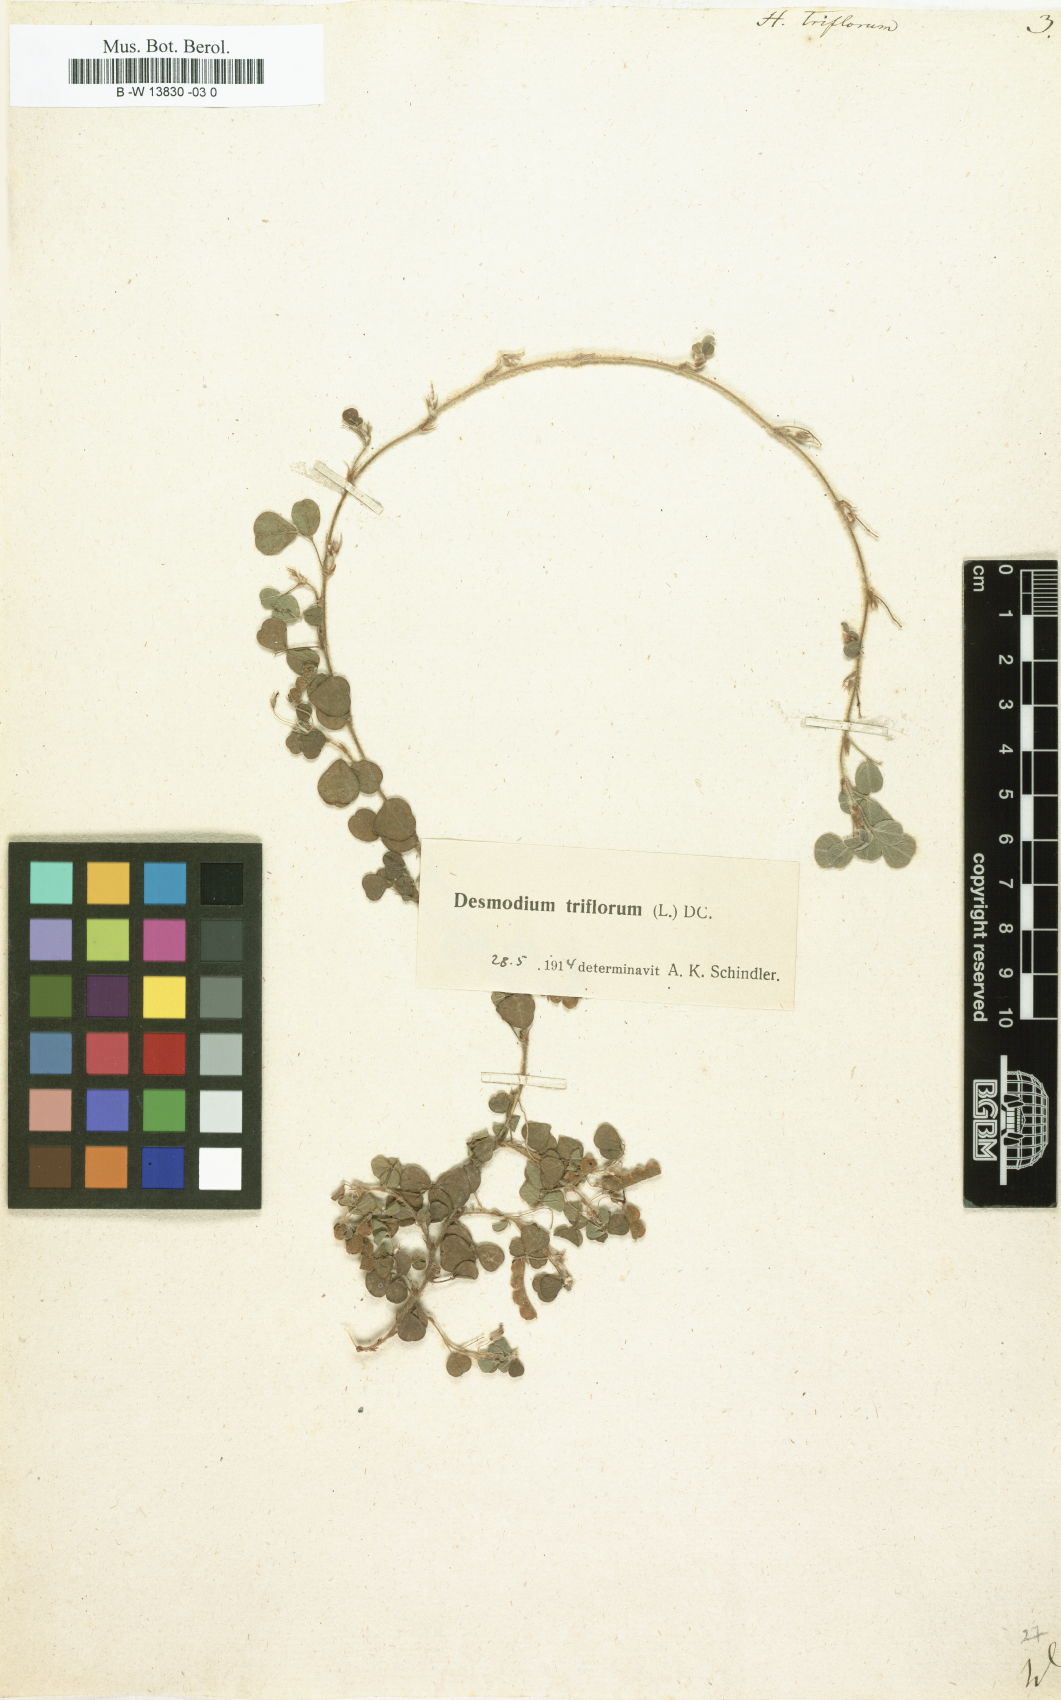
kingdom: Plantae
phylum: Tracheophyta
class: Magnoliopsida
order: Fabales
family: Fabaceae
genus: Grona
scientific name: Grona triflora
